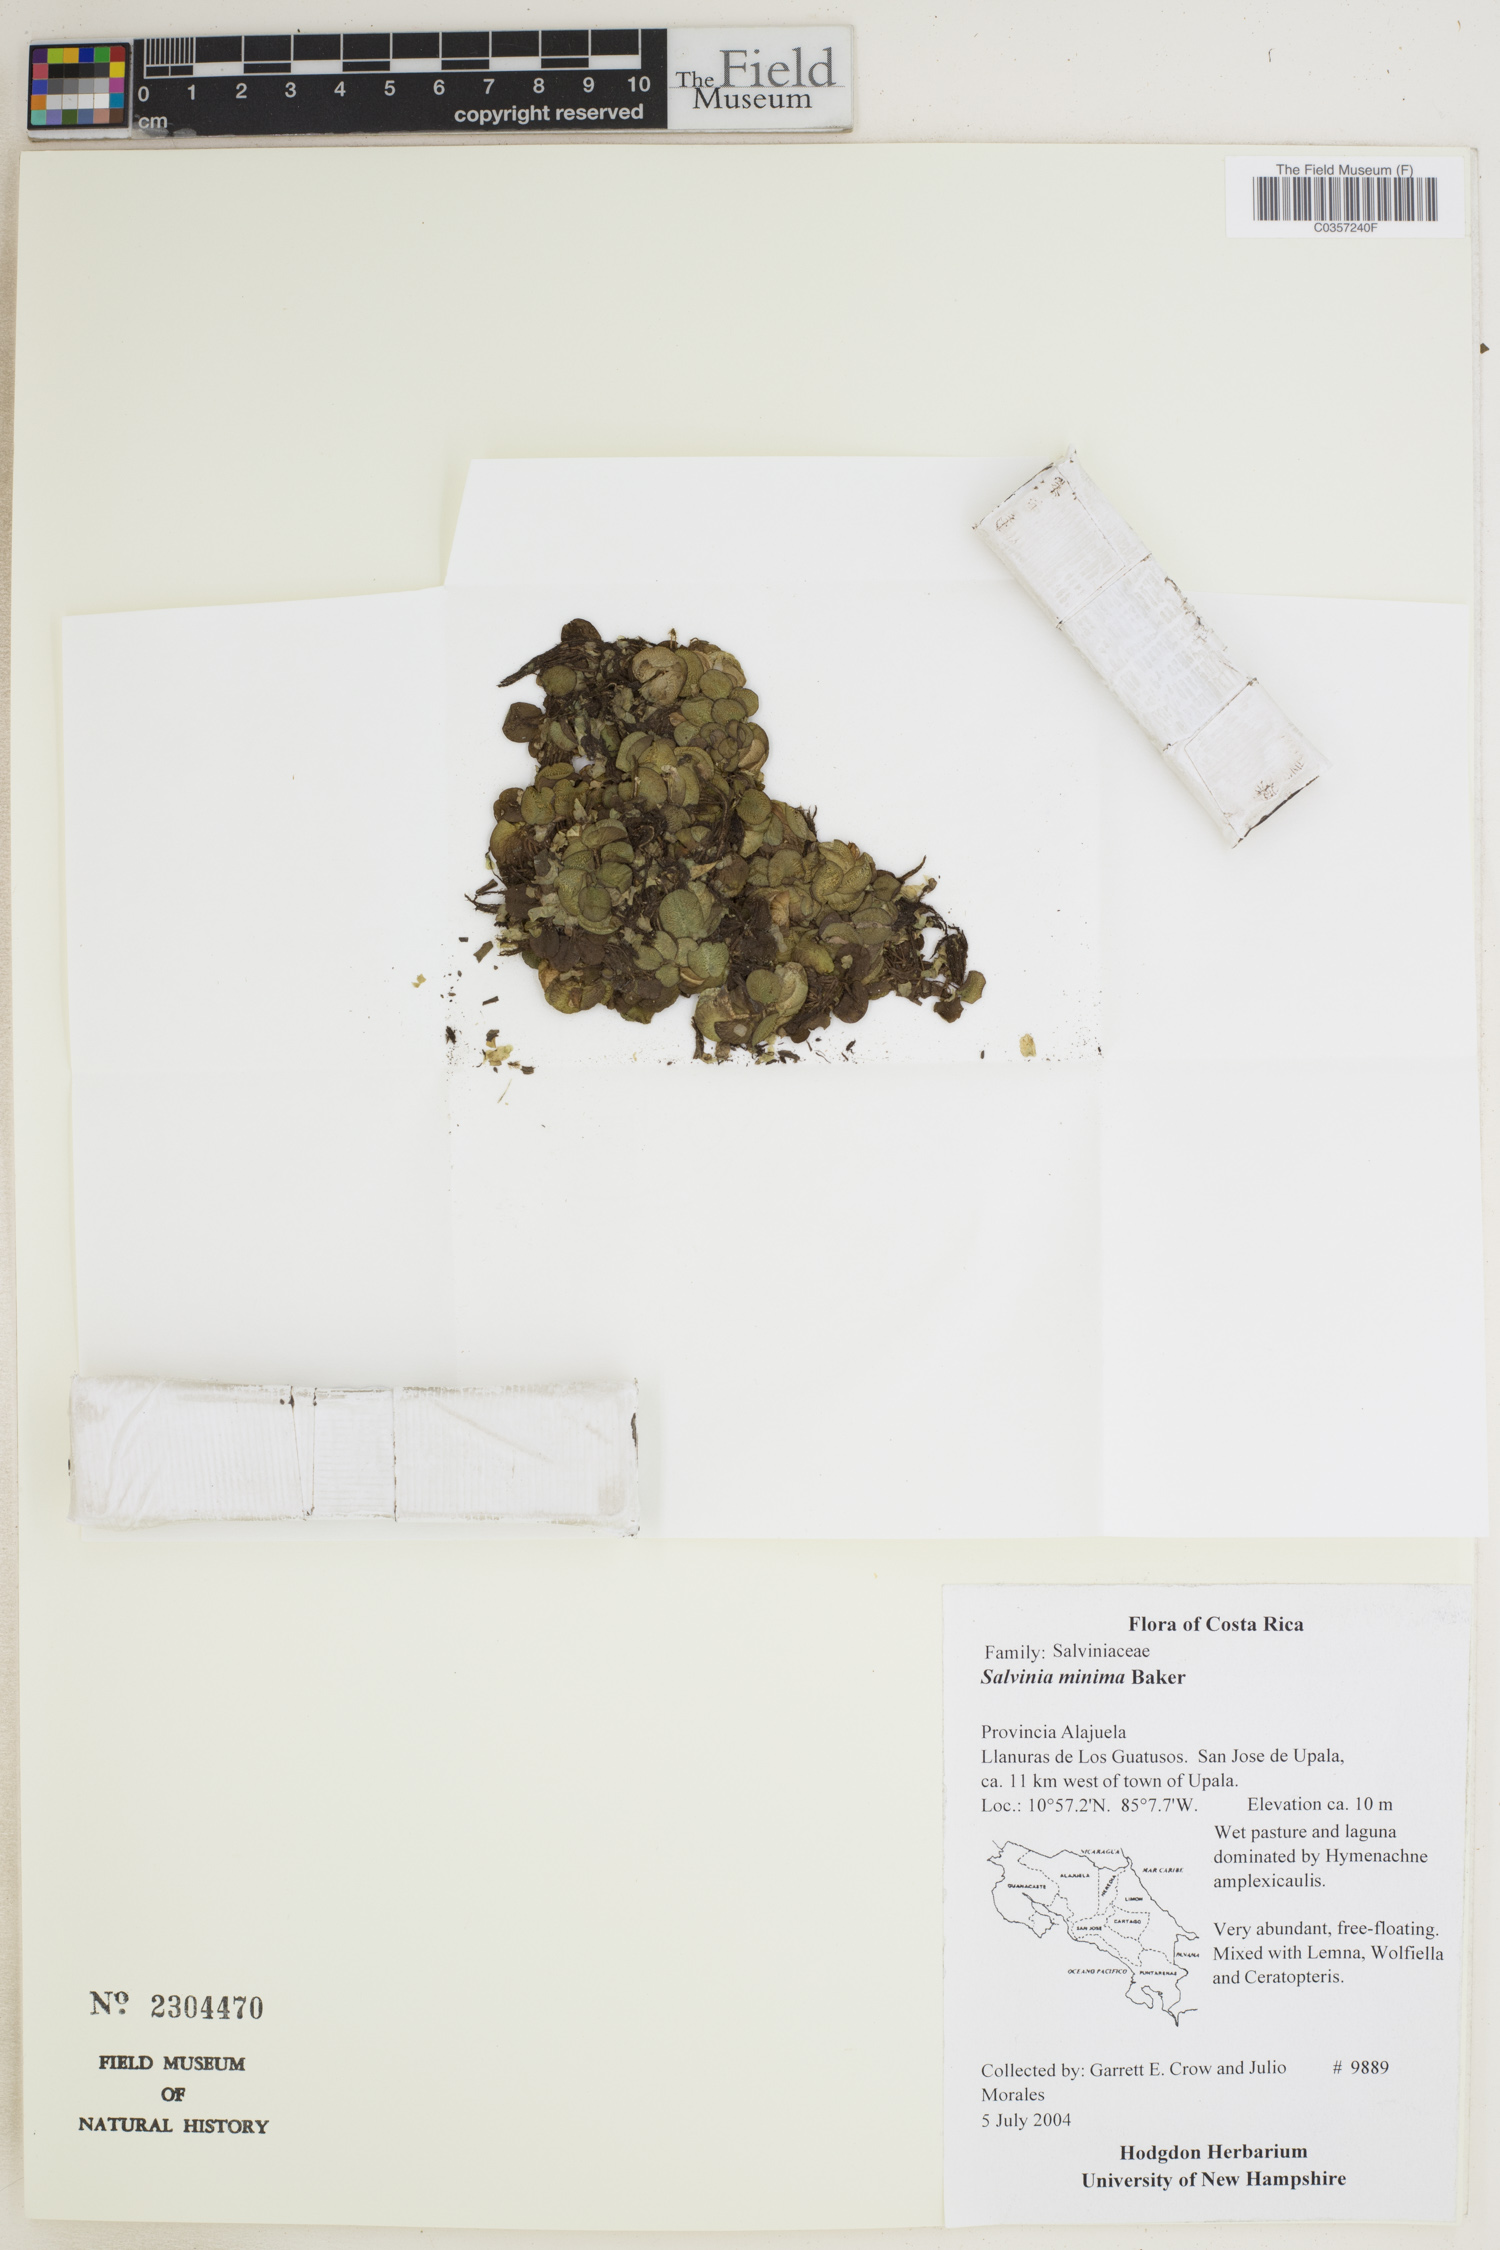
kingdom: Plantae
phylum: Tracheophyta
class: Polypodiopsida
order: Salviniales
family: Salviniaceae
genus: Salvinia
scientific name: Salvinia minima
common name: Water spangles
